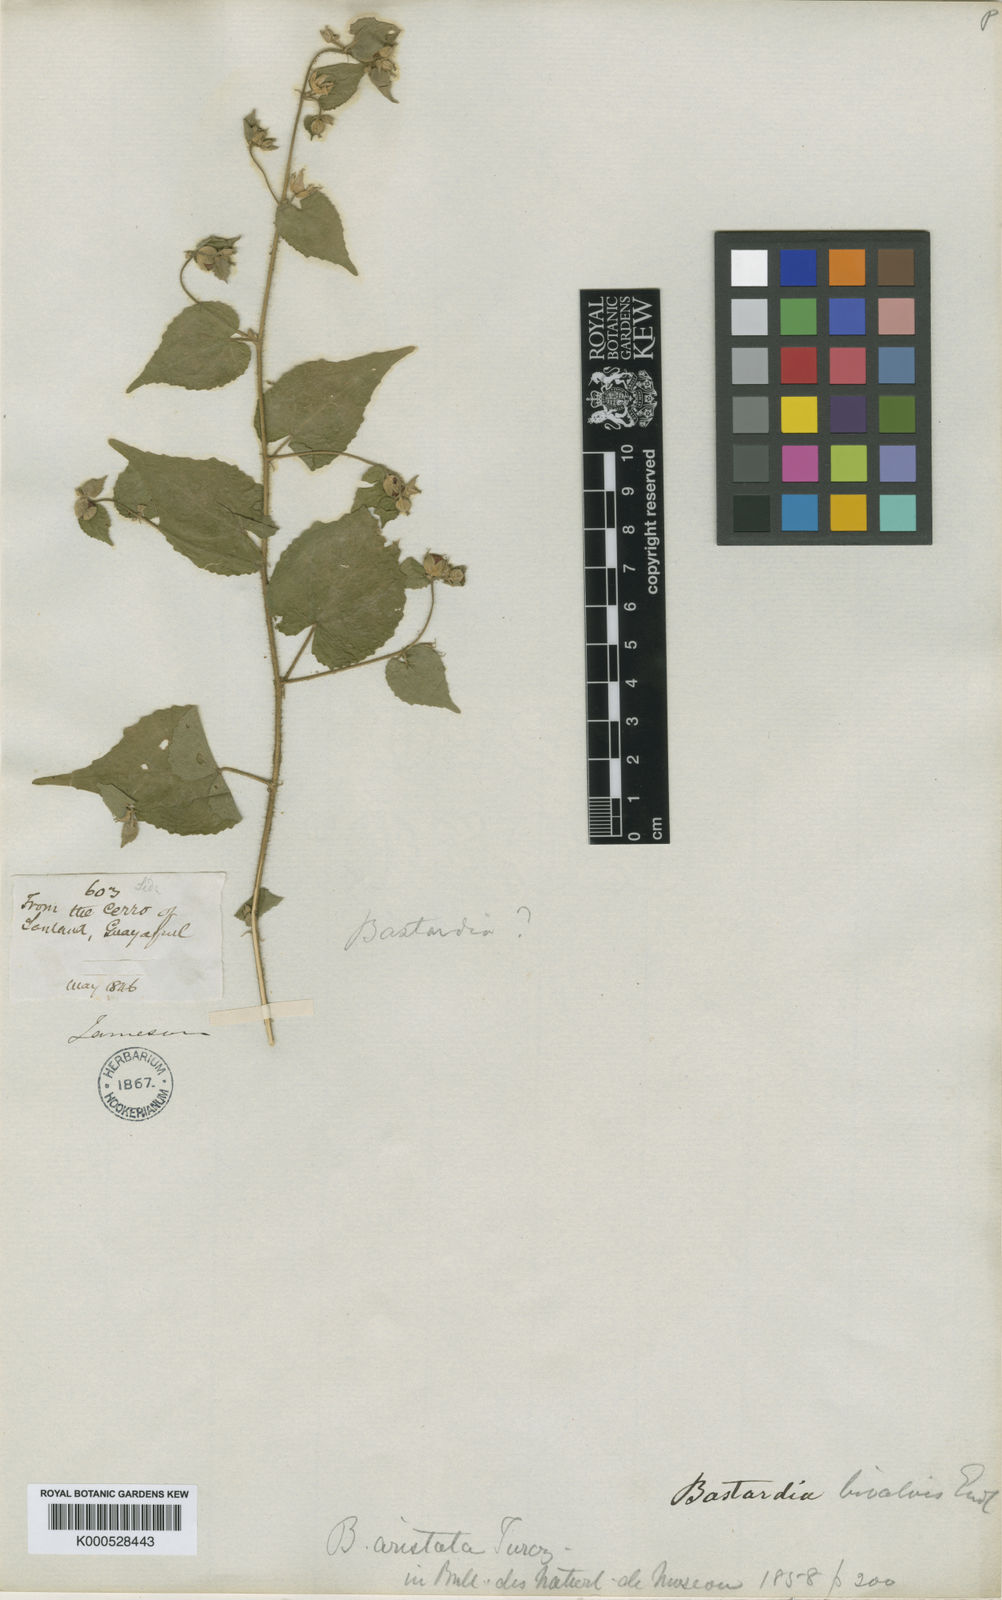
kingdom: Plantae
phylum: Tracheophyta
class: Magnoliopsida
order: Malvales
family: Malvaceae
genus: Abutilon
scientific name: Abutilon bivalve
